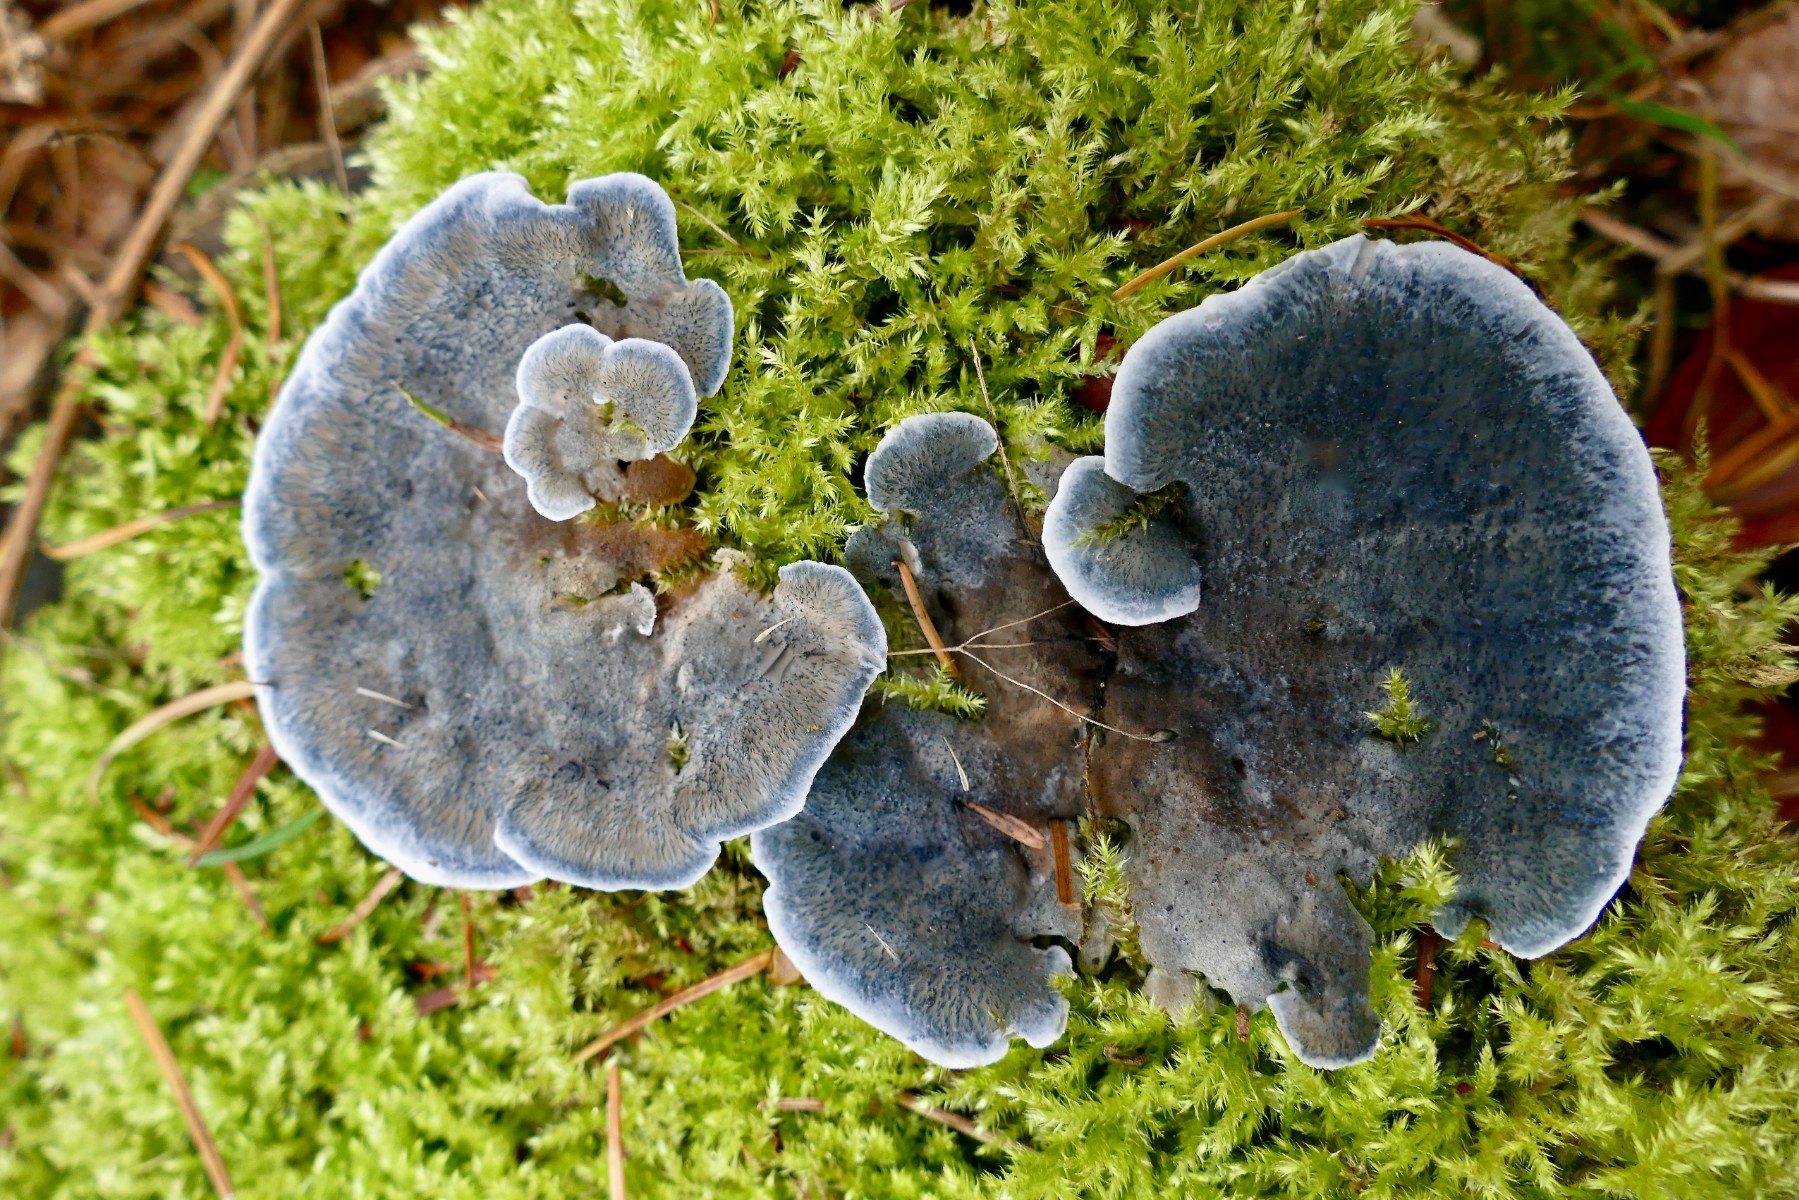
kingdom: Fungi
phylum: Basidiomycota
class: Agaricomycetes
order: Polyporales
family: Polyporaceae
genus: Cyanosporus
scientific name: Cyanosporus caesius
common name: blålig kødporesvamp
